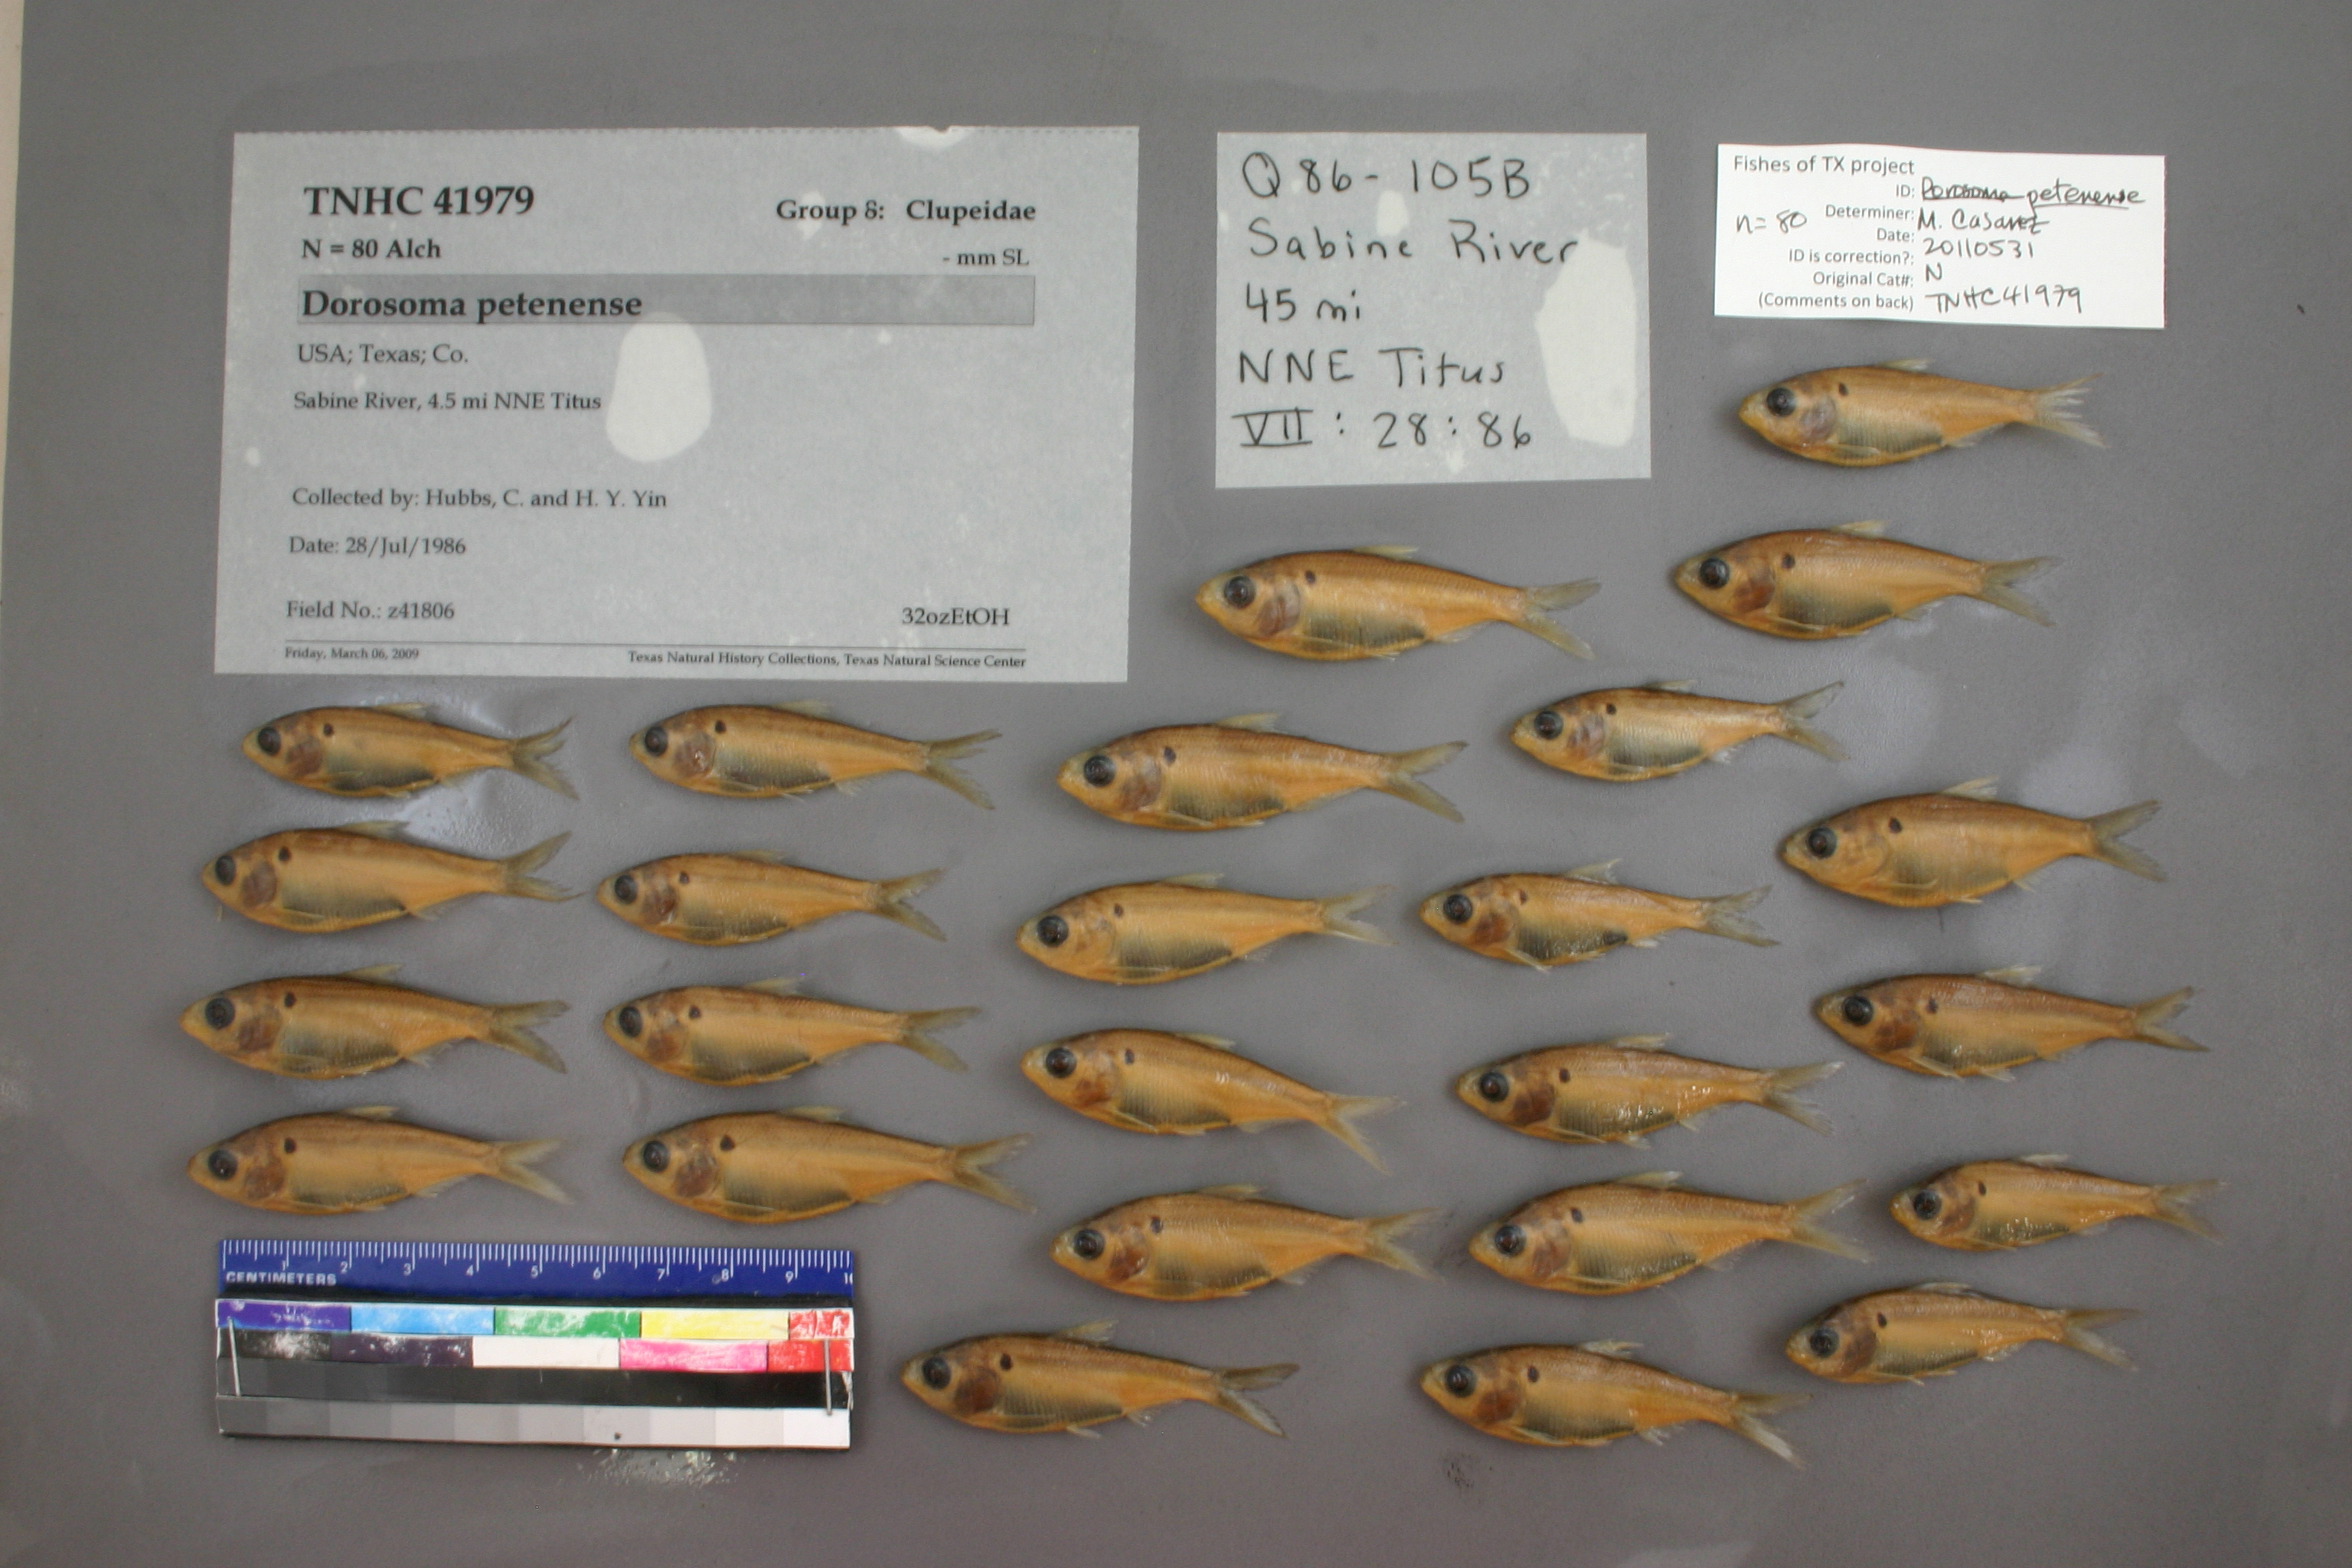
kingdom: Animalia
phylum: Chordata
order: Clupeiformes
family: Clupeidae
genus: Dorosoma
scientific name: Dorosoma petenense
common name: Threadfin shad
